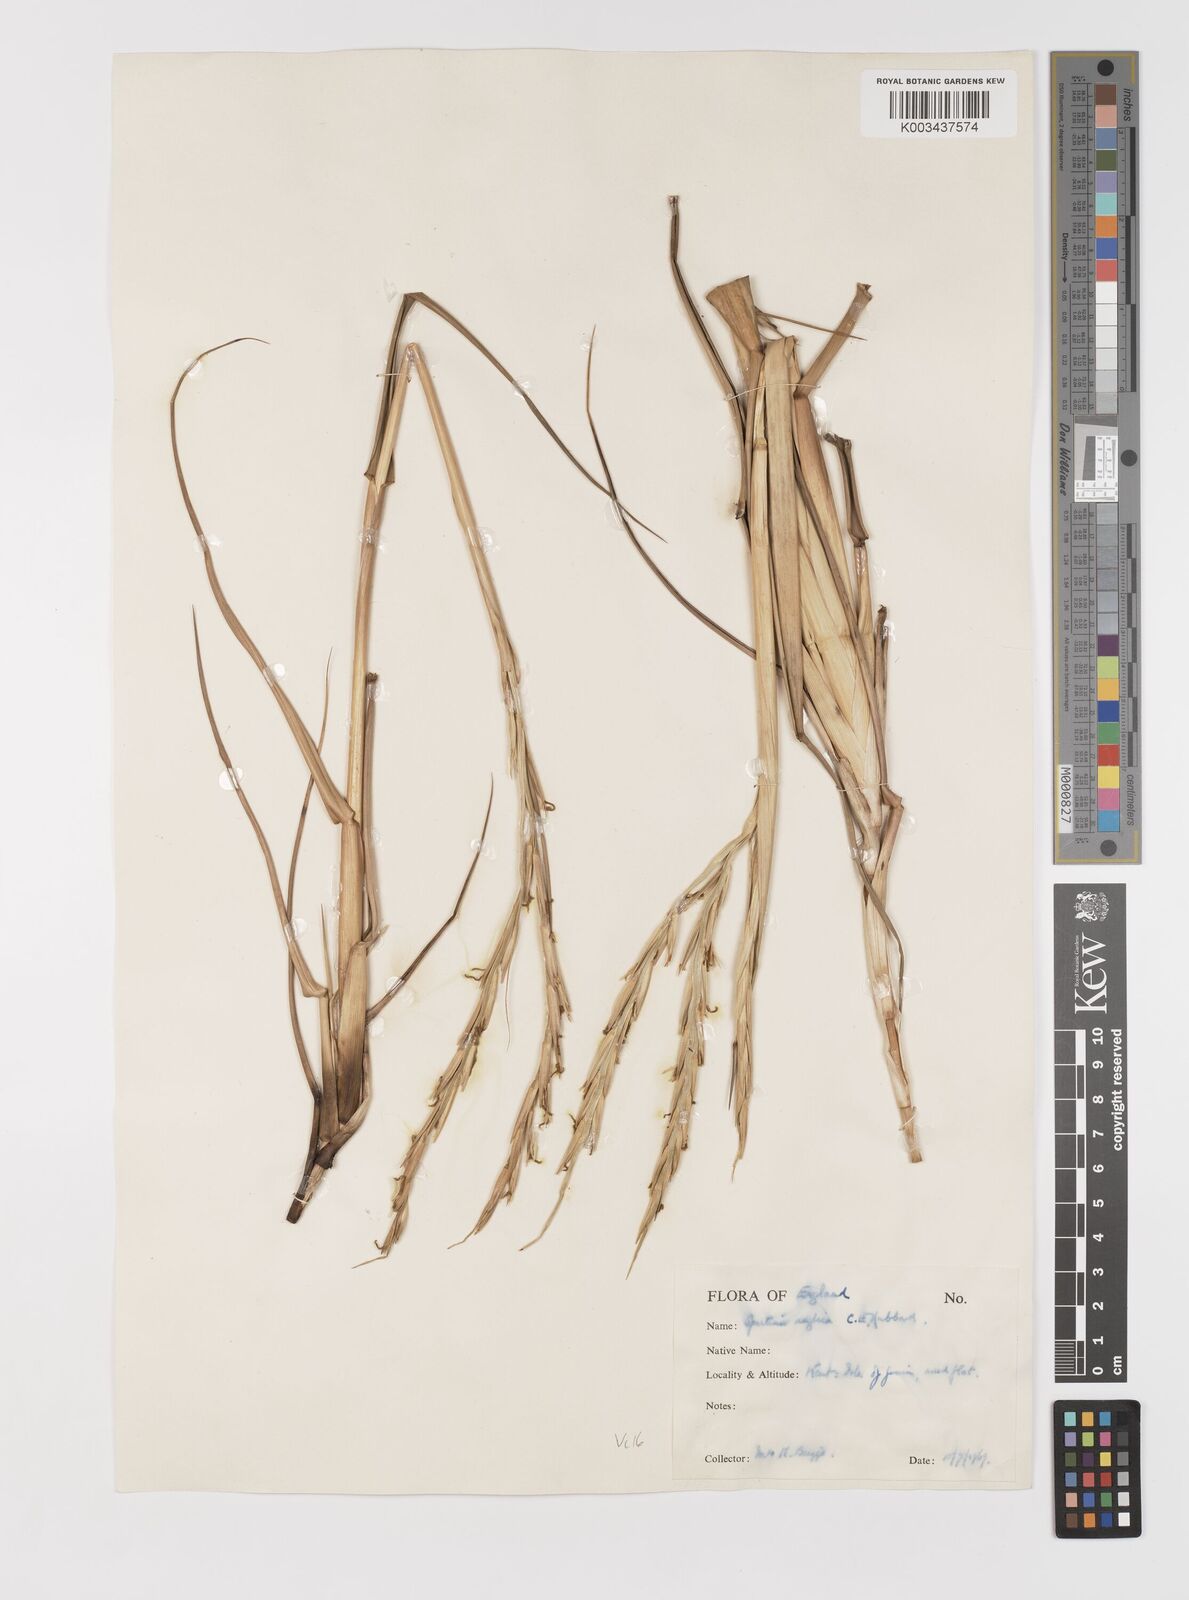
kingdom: Plantae
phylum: Tracheophyta
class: Liliopsida
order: Poales
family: Poaceae
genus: Sporobolus
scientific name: Sporobolus anglicus
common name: English cordgrass
